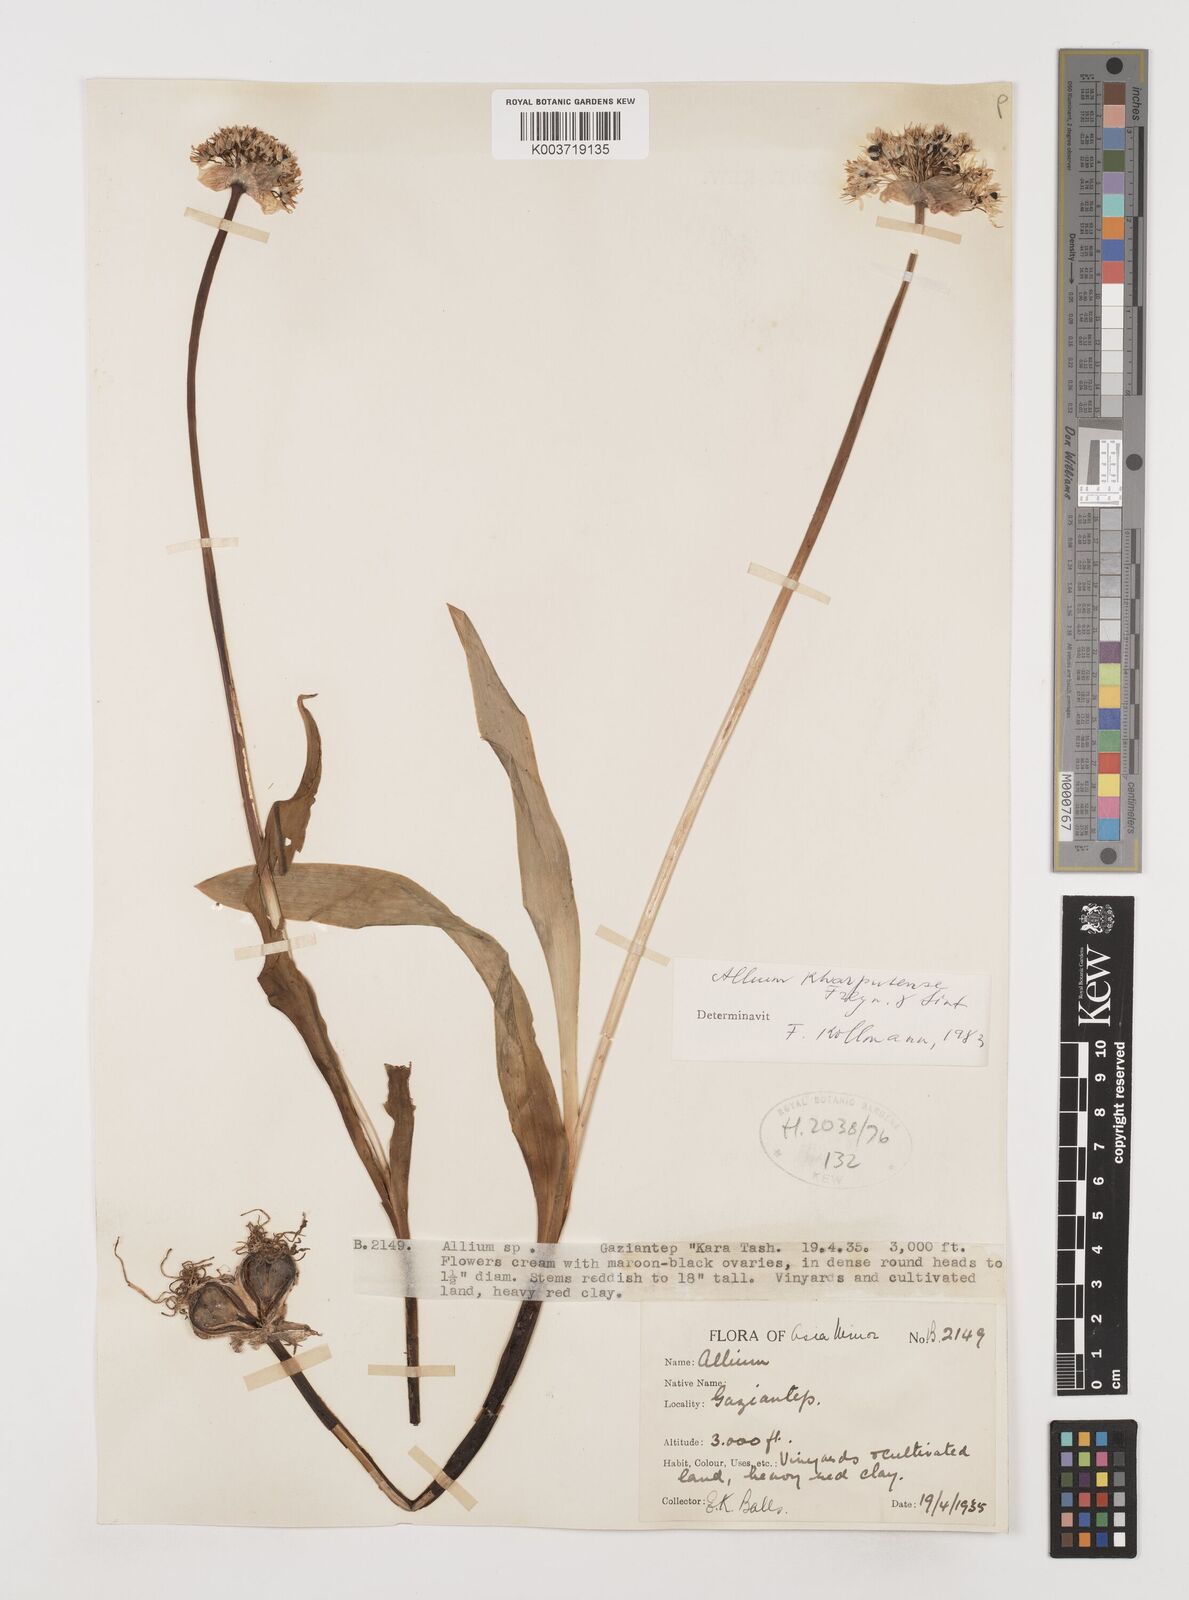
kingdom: Plantae
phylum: Tracheophyta
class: Liliopsida
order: Asparagales
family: Amaryllidaceae
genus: Allium
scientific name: Allium kharputense
